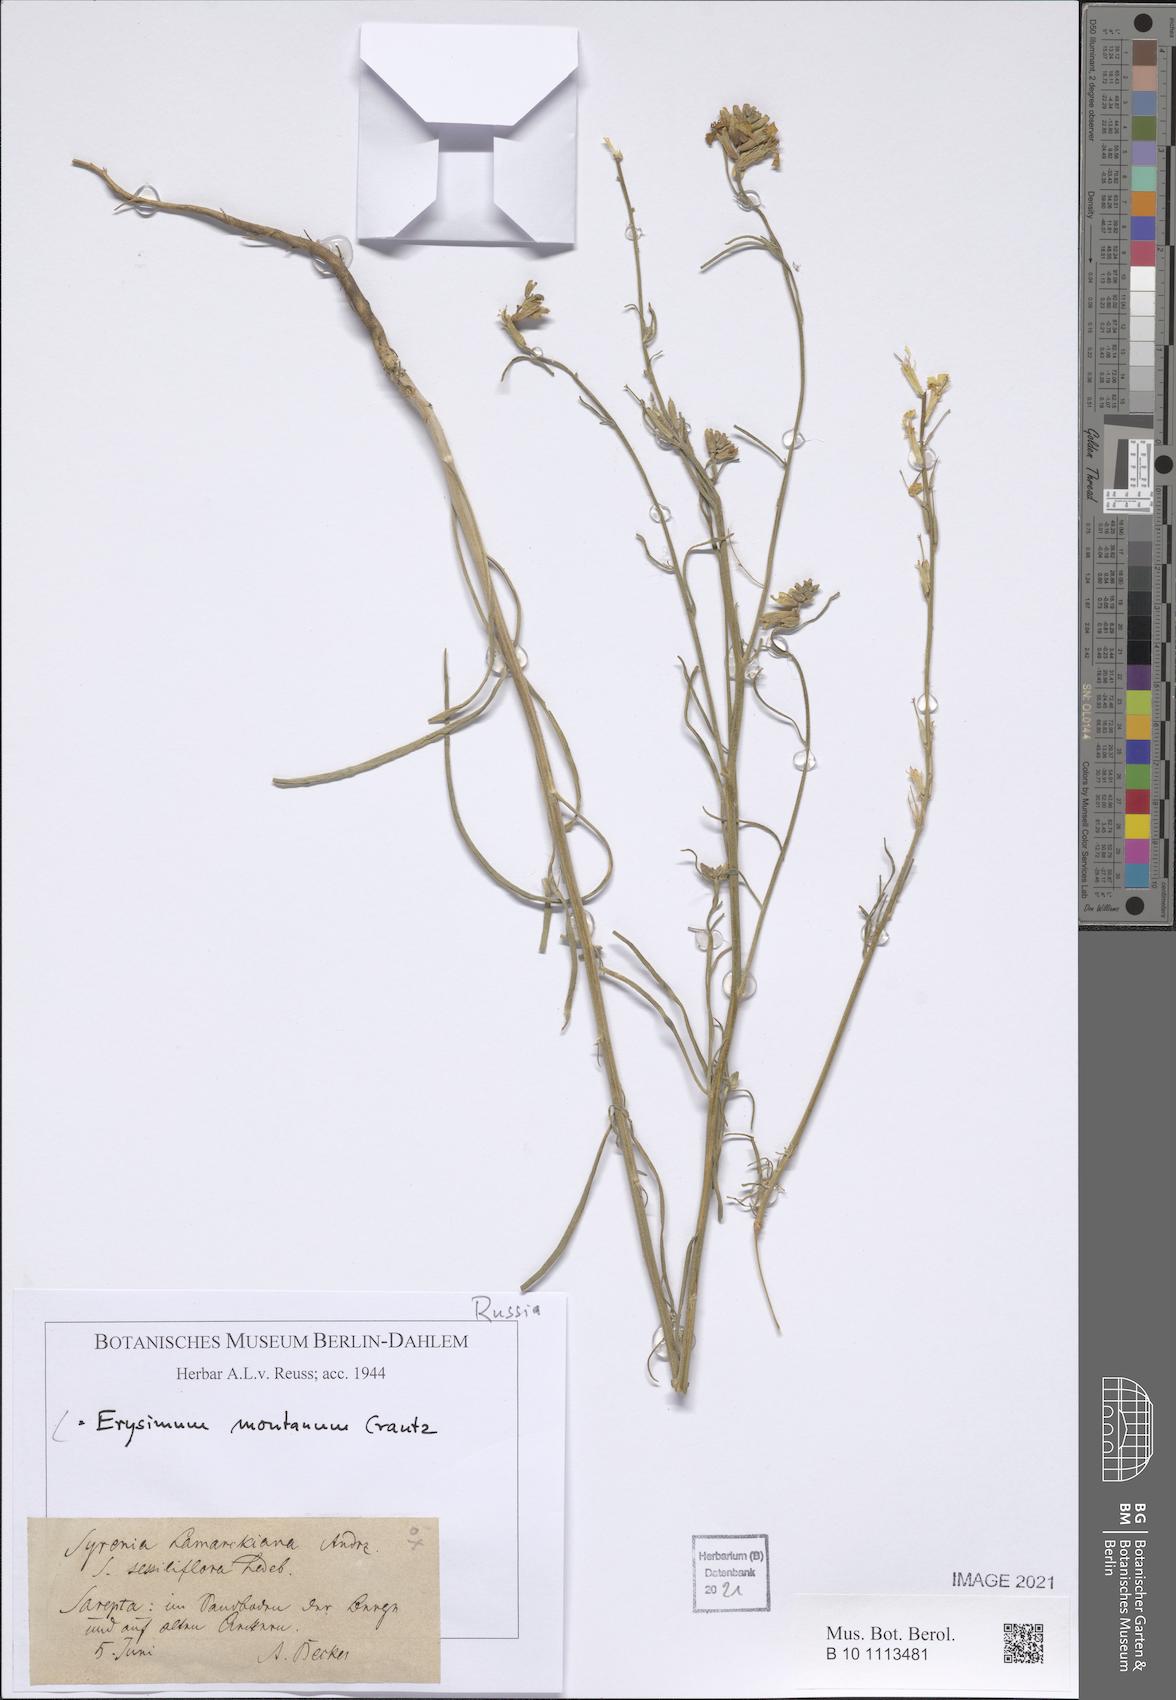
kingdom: Plantae
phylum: Tracheophyta
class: Magnoliopsida
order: Brassicales
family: Brassicaceae
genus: Erysimum
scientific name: Erysimum montanum
